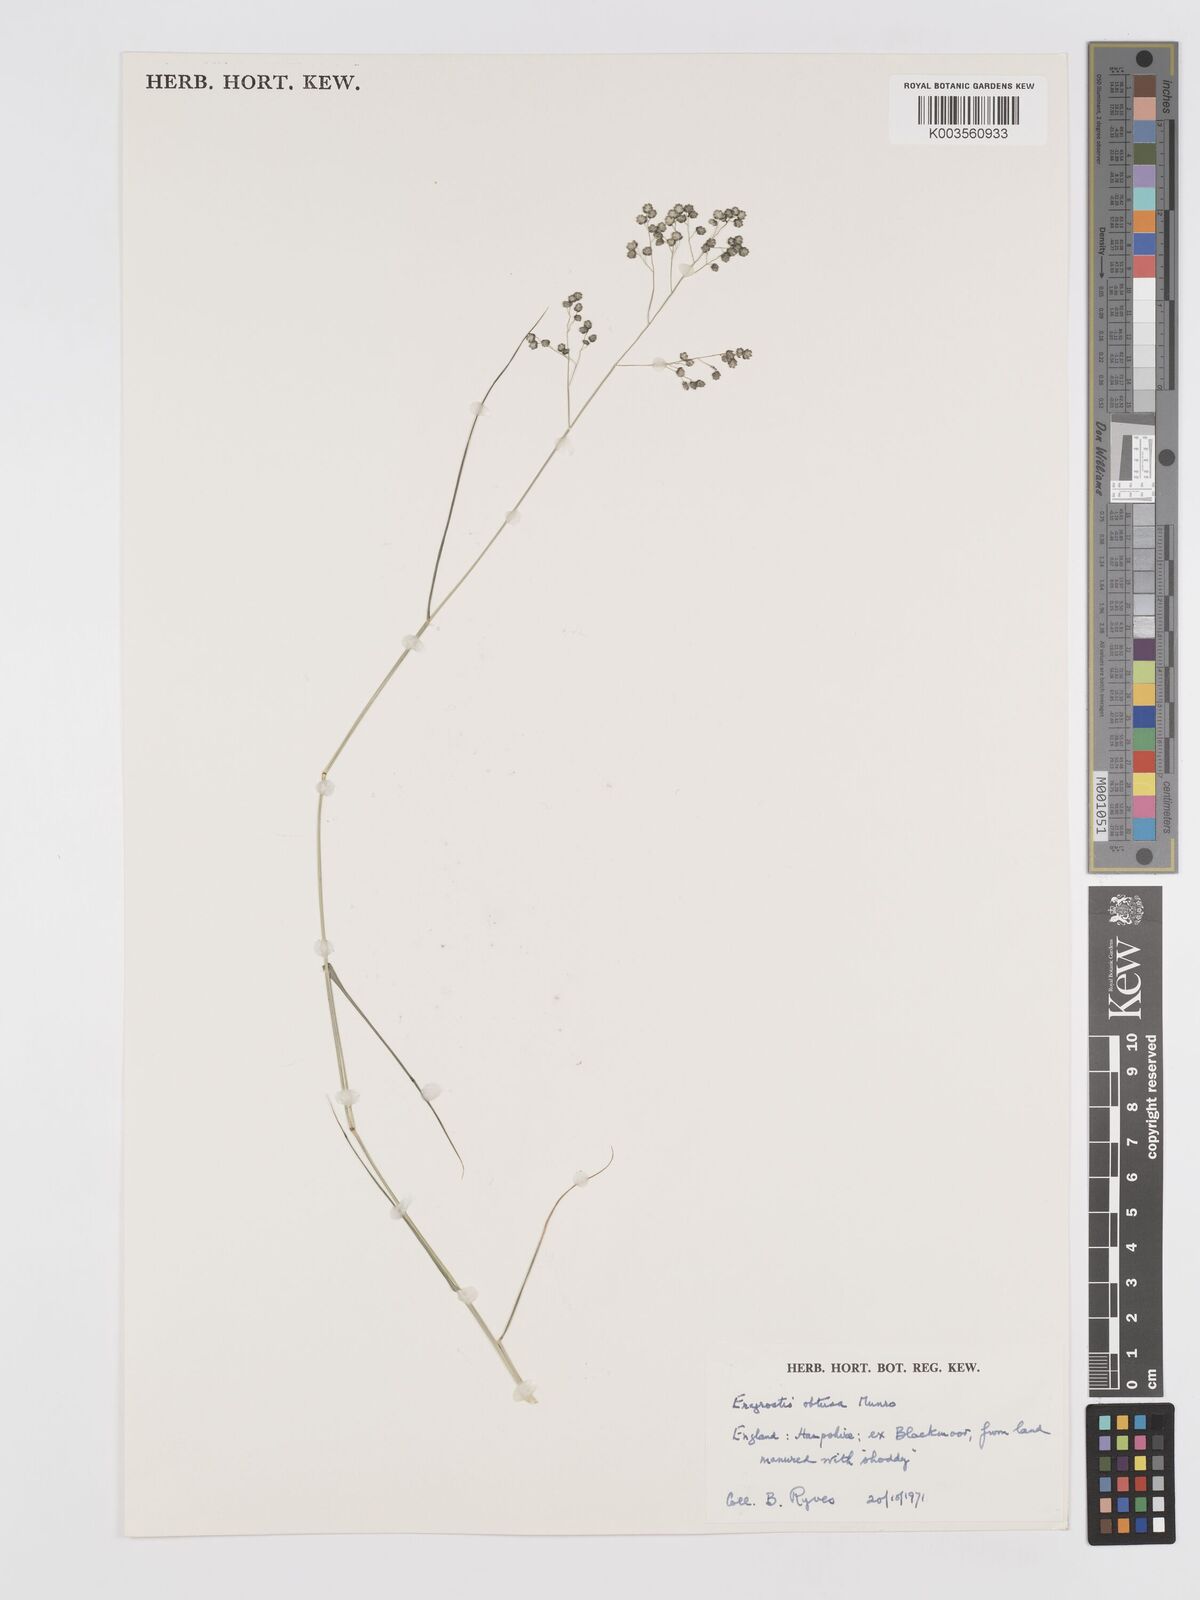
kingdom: Plantae
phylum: Tracheophyta
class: Liliopsida
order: Poales
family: Poaceae
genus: Eragrostis
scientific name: Eragrostis obtusa
